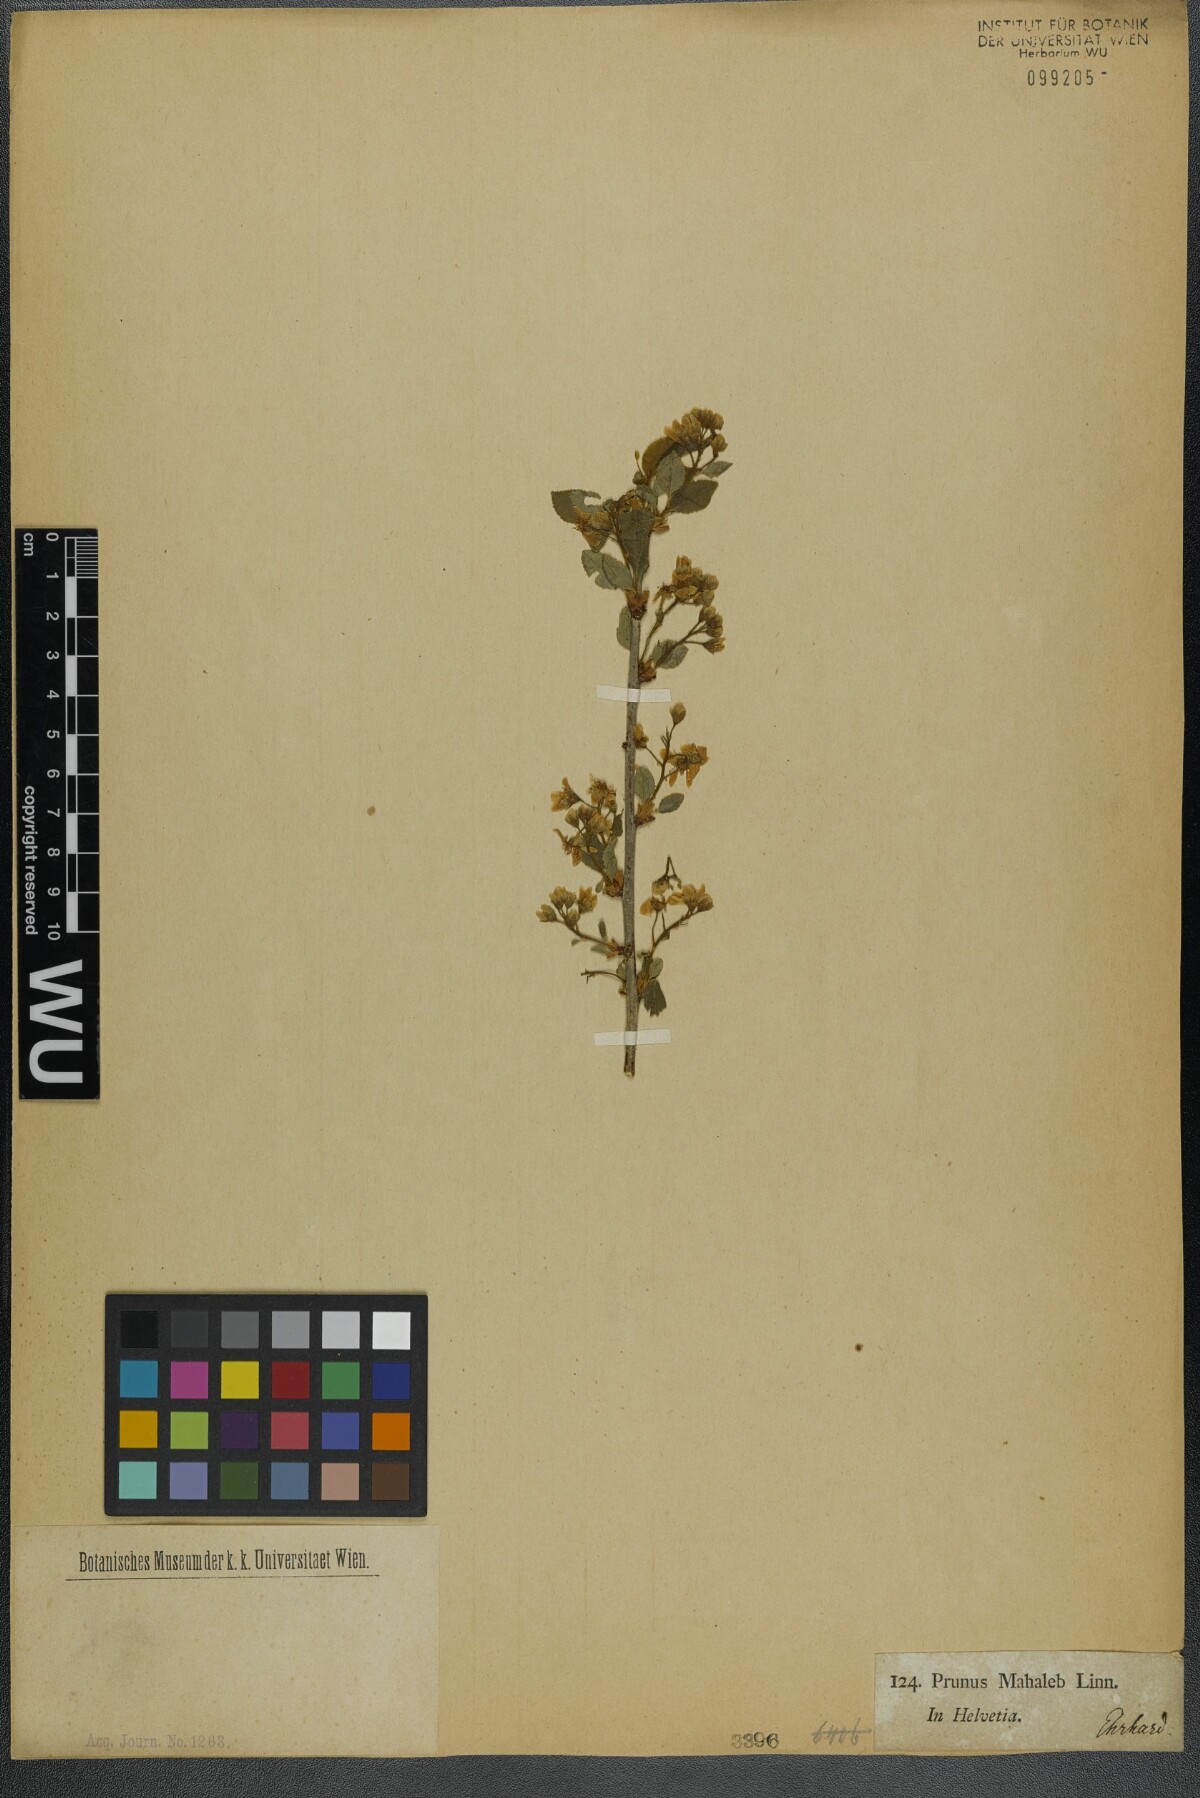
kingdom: Plantae
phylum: Tracheophyta
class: Magnoliopsida
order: Rosales
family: Rosaceae
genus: Prunus
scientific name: Prunus mahaleb
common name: Mahaleb cherry
